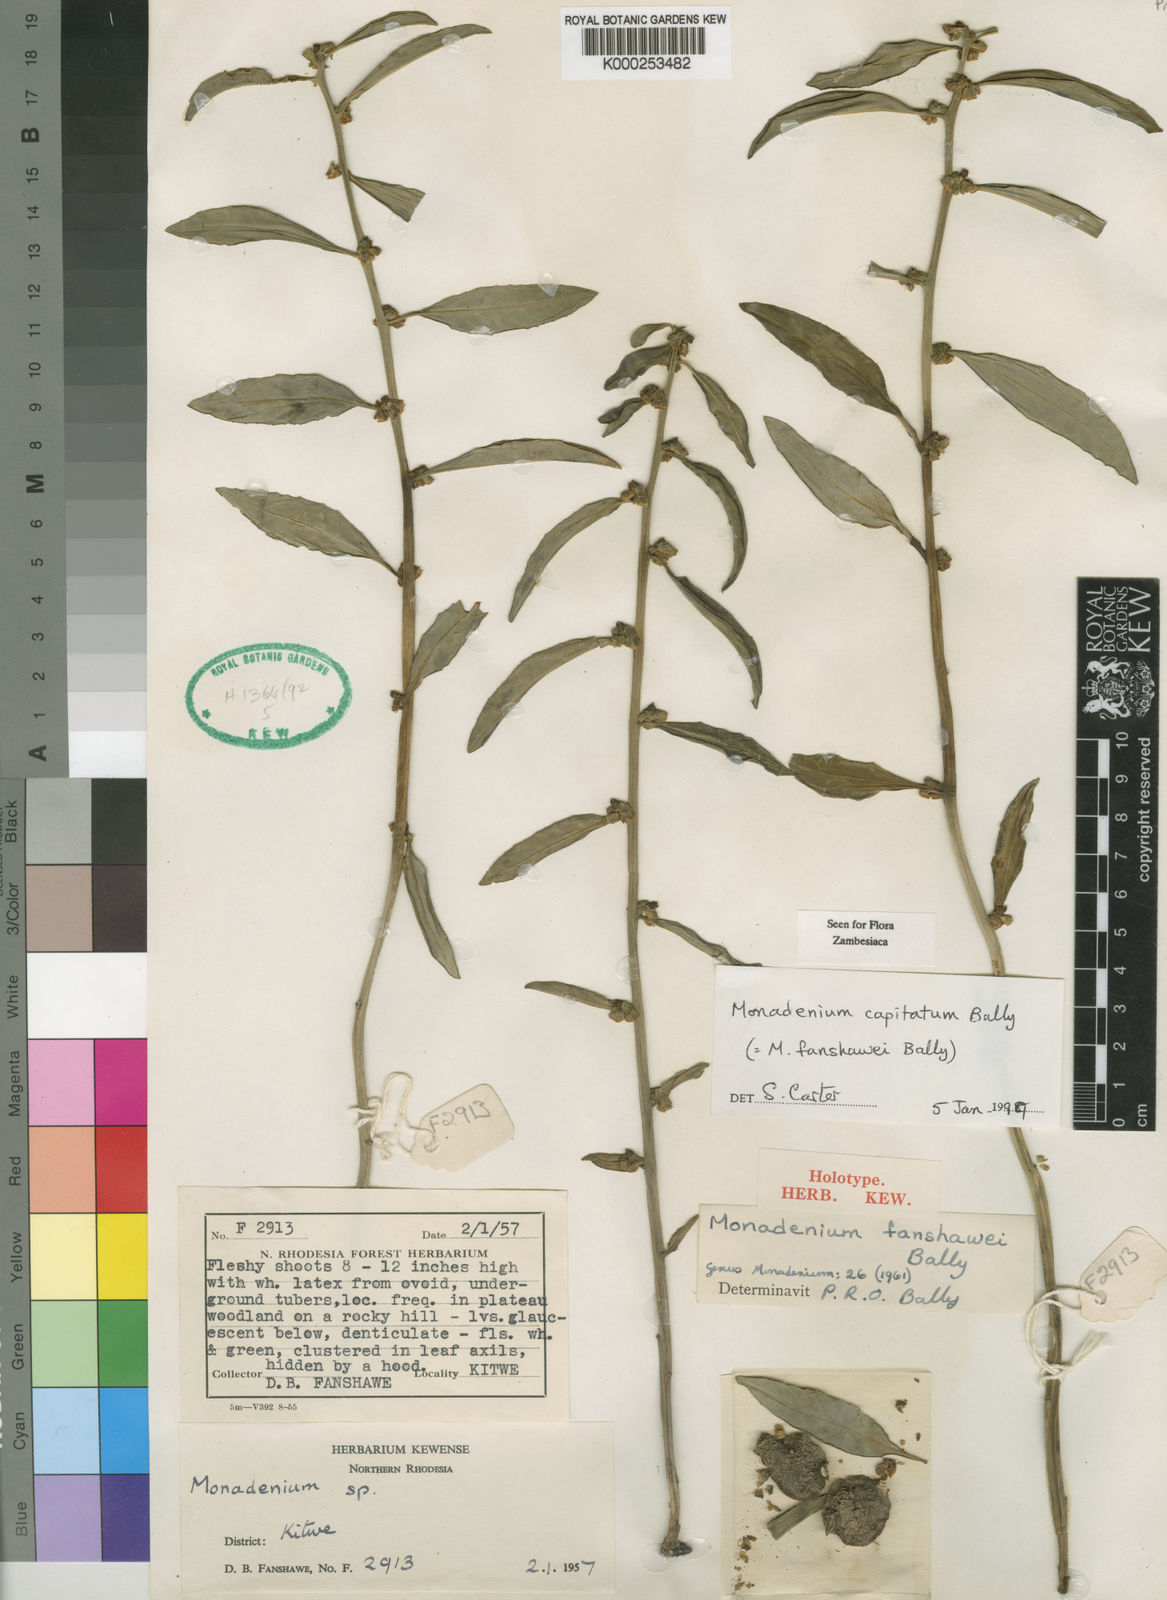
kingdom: Plantae
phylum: Tracheophyta
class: Magnoliopsida
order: Malpighiales
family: Euphorbiaceae
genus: Euphorbia
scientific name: Euphorbia neocapitata
